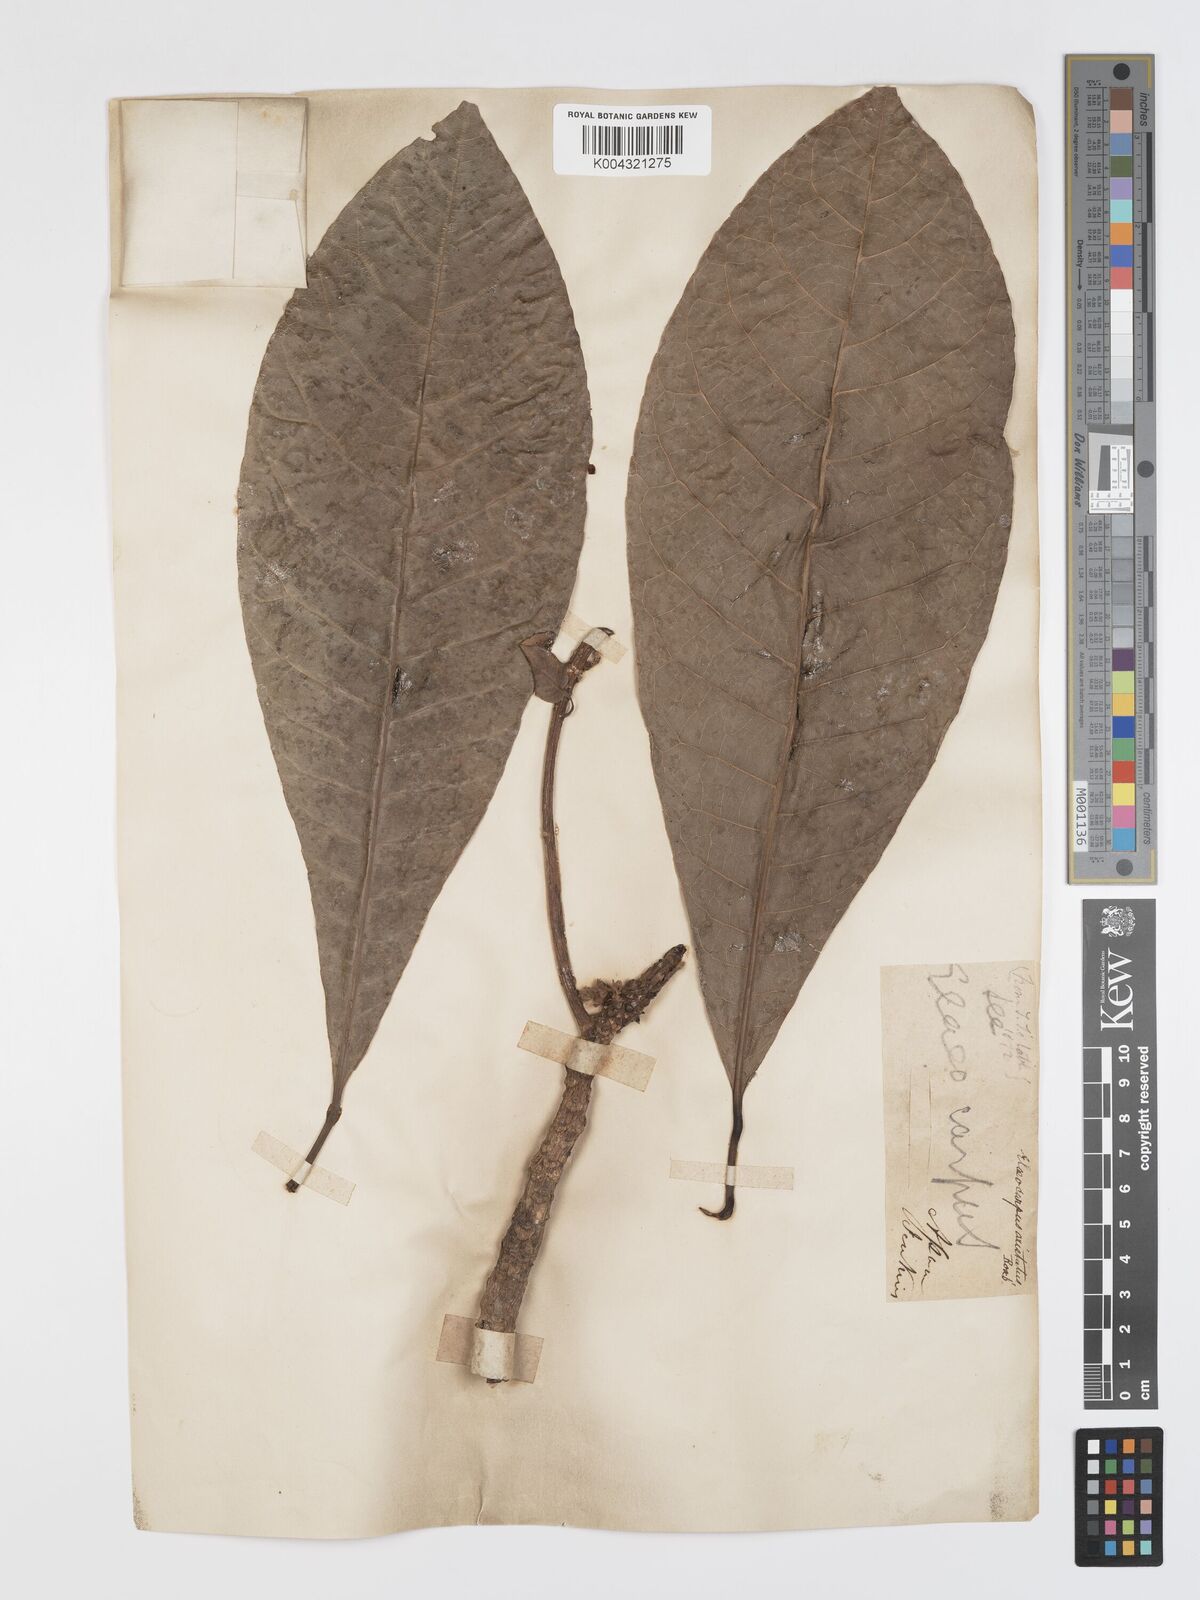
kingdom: Plantae
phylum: Tracheophyta
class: Magnoliopsida
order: Oxalidales
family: Elaeocarpaceae
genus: Elaeocarpus
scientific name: Elaeocarpus aristatus
